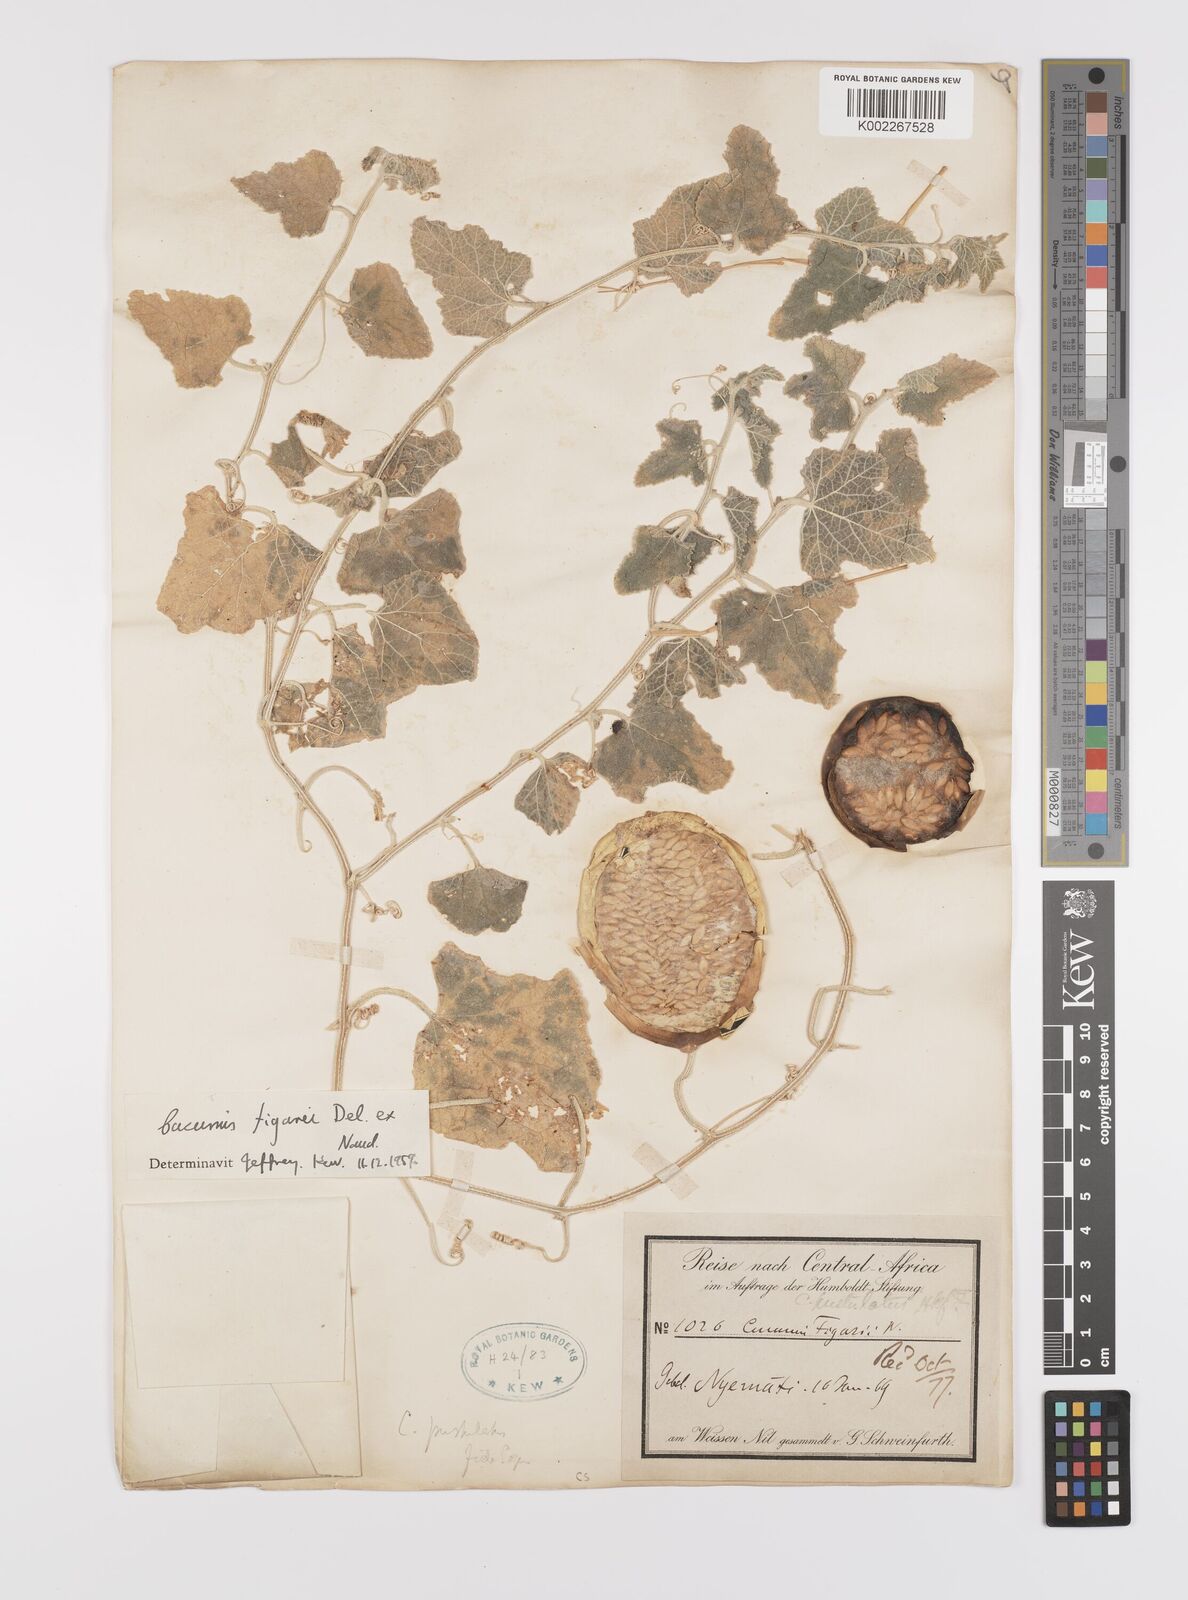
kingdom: Plantae
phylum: Tracheophyta
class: Magnoliopsida
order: Cucurbitales
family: Cucurbitaceae
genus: Cucumis
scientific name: Cucumis pustulatus
